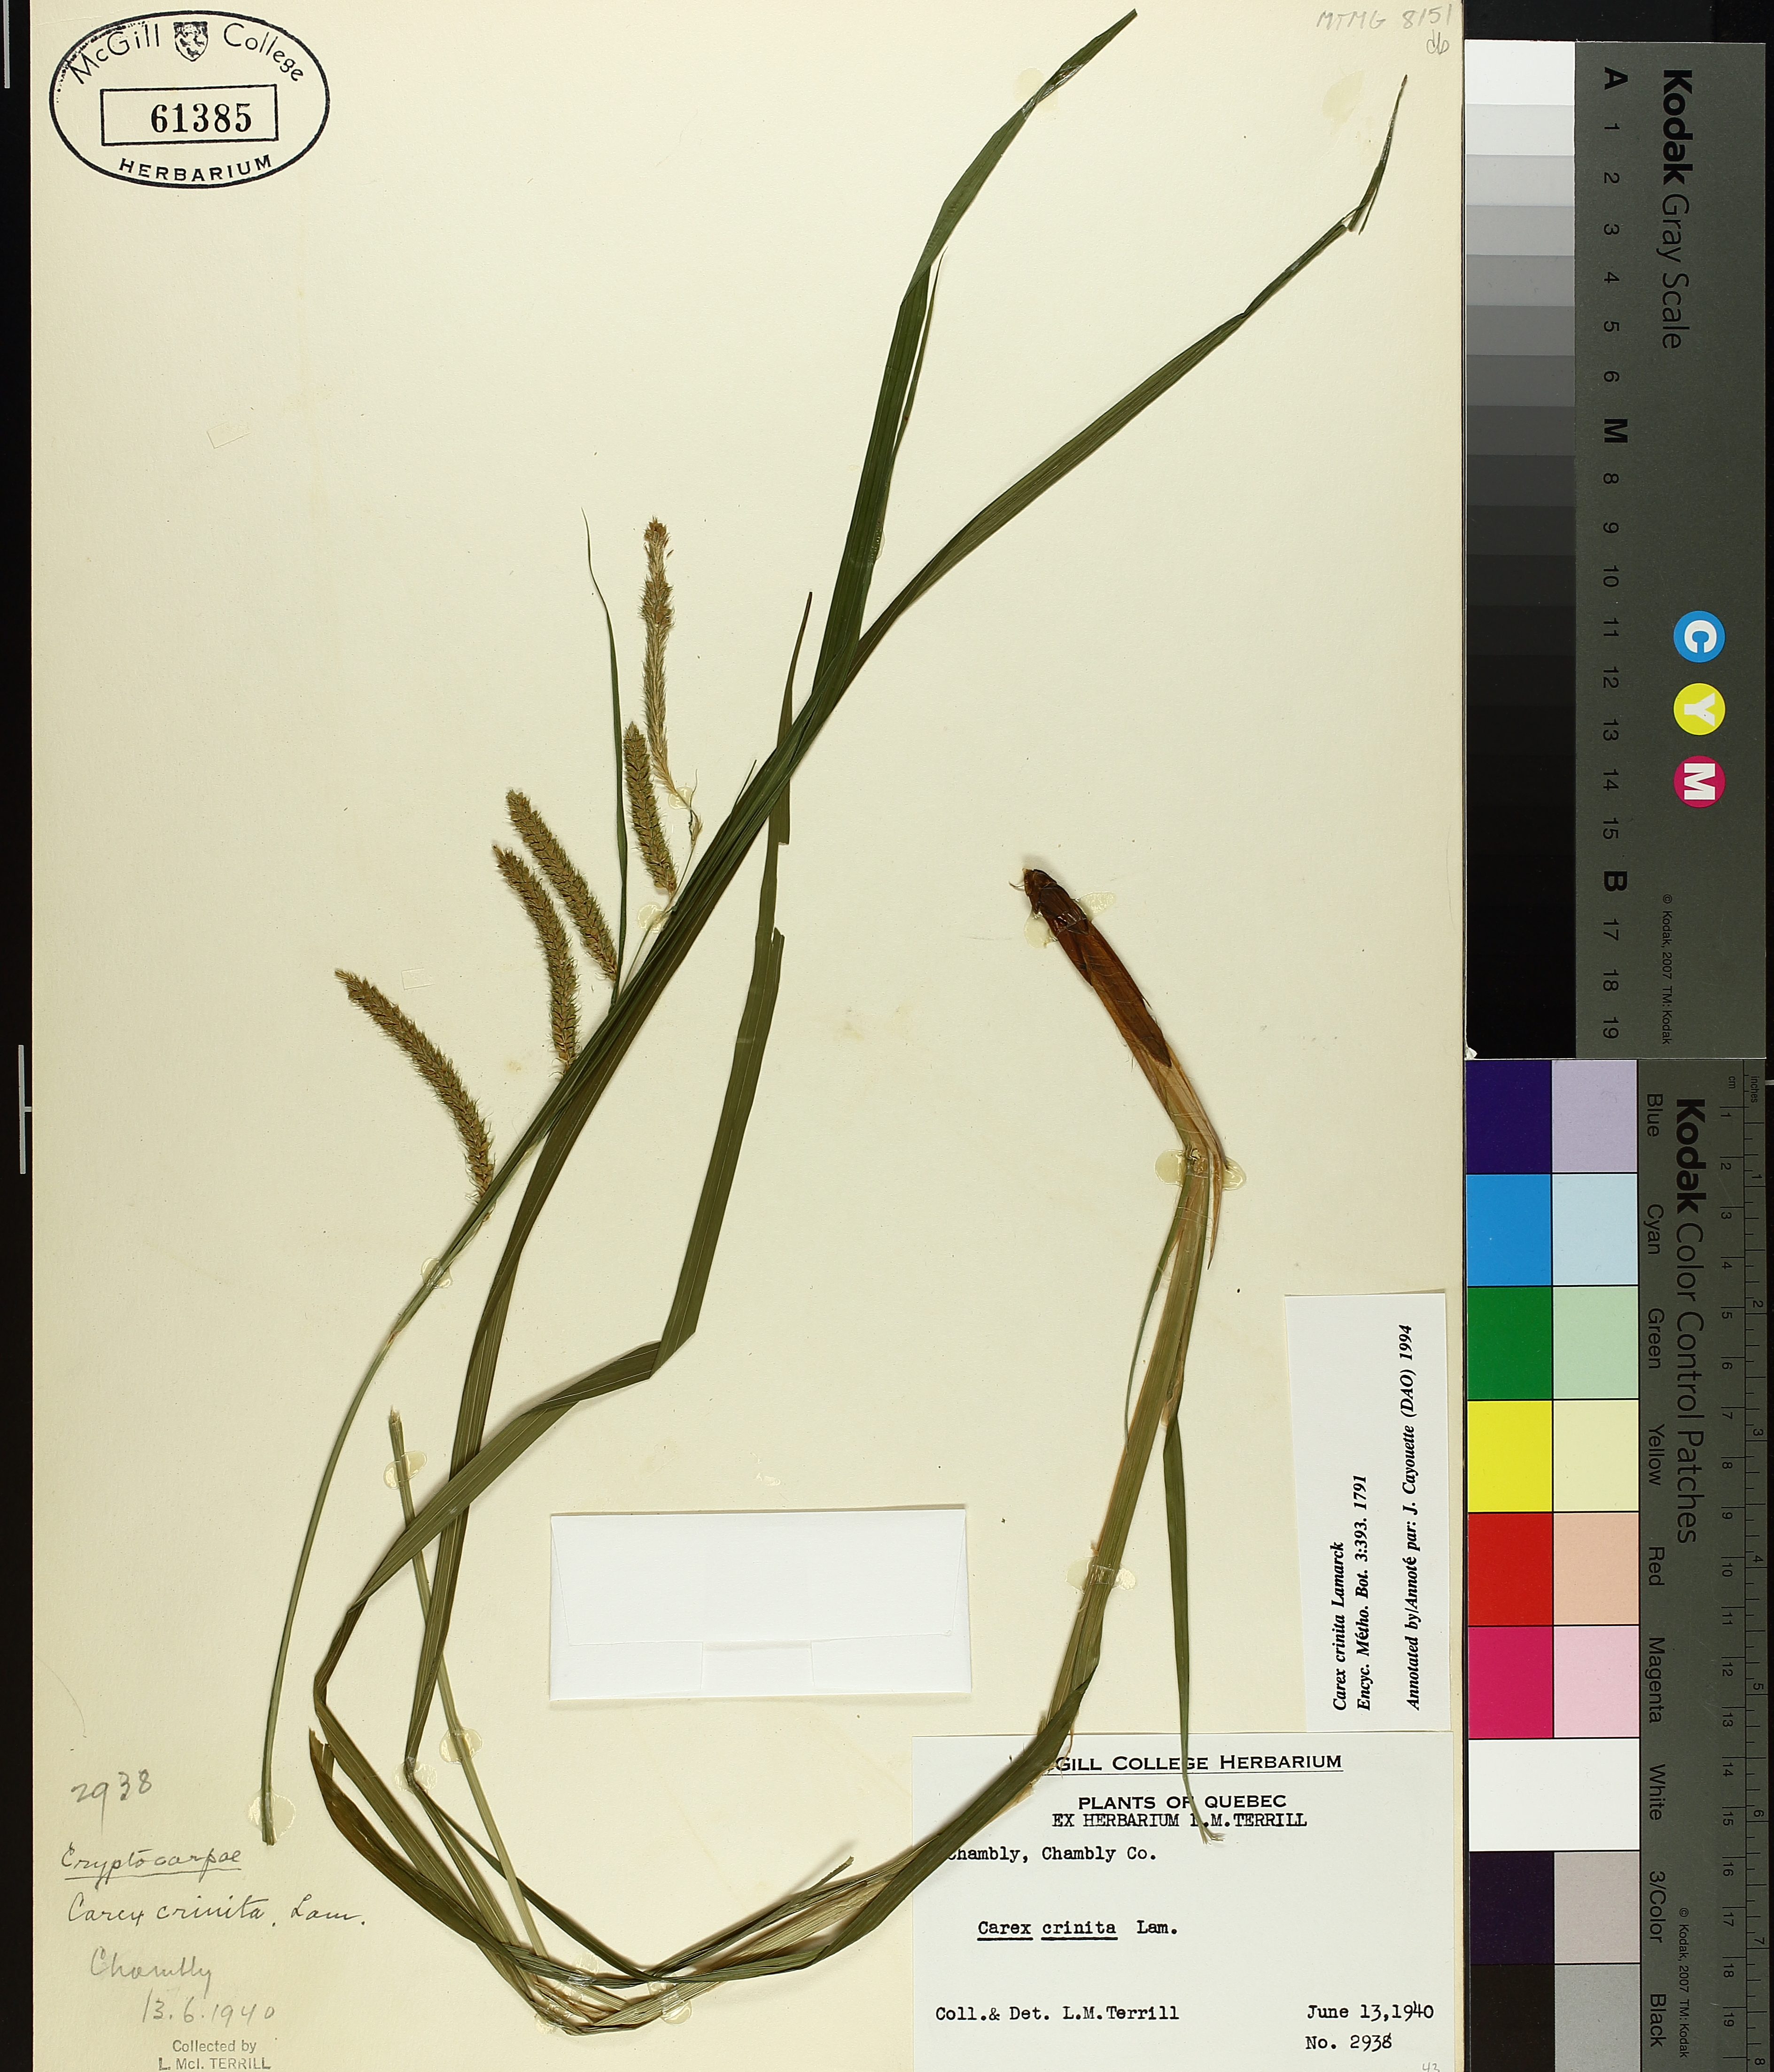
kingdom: Plantae
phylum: Tracheophyta
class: Liliopsida
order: Poales
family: Cyperaceae
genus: Carex
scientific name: Carex crinita
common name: Fringed sedge
